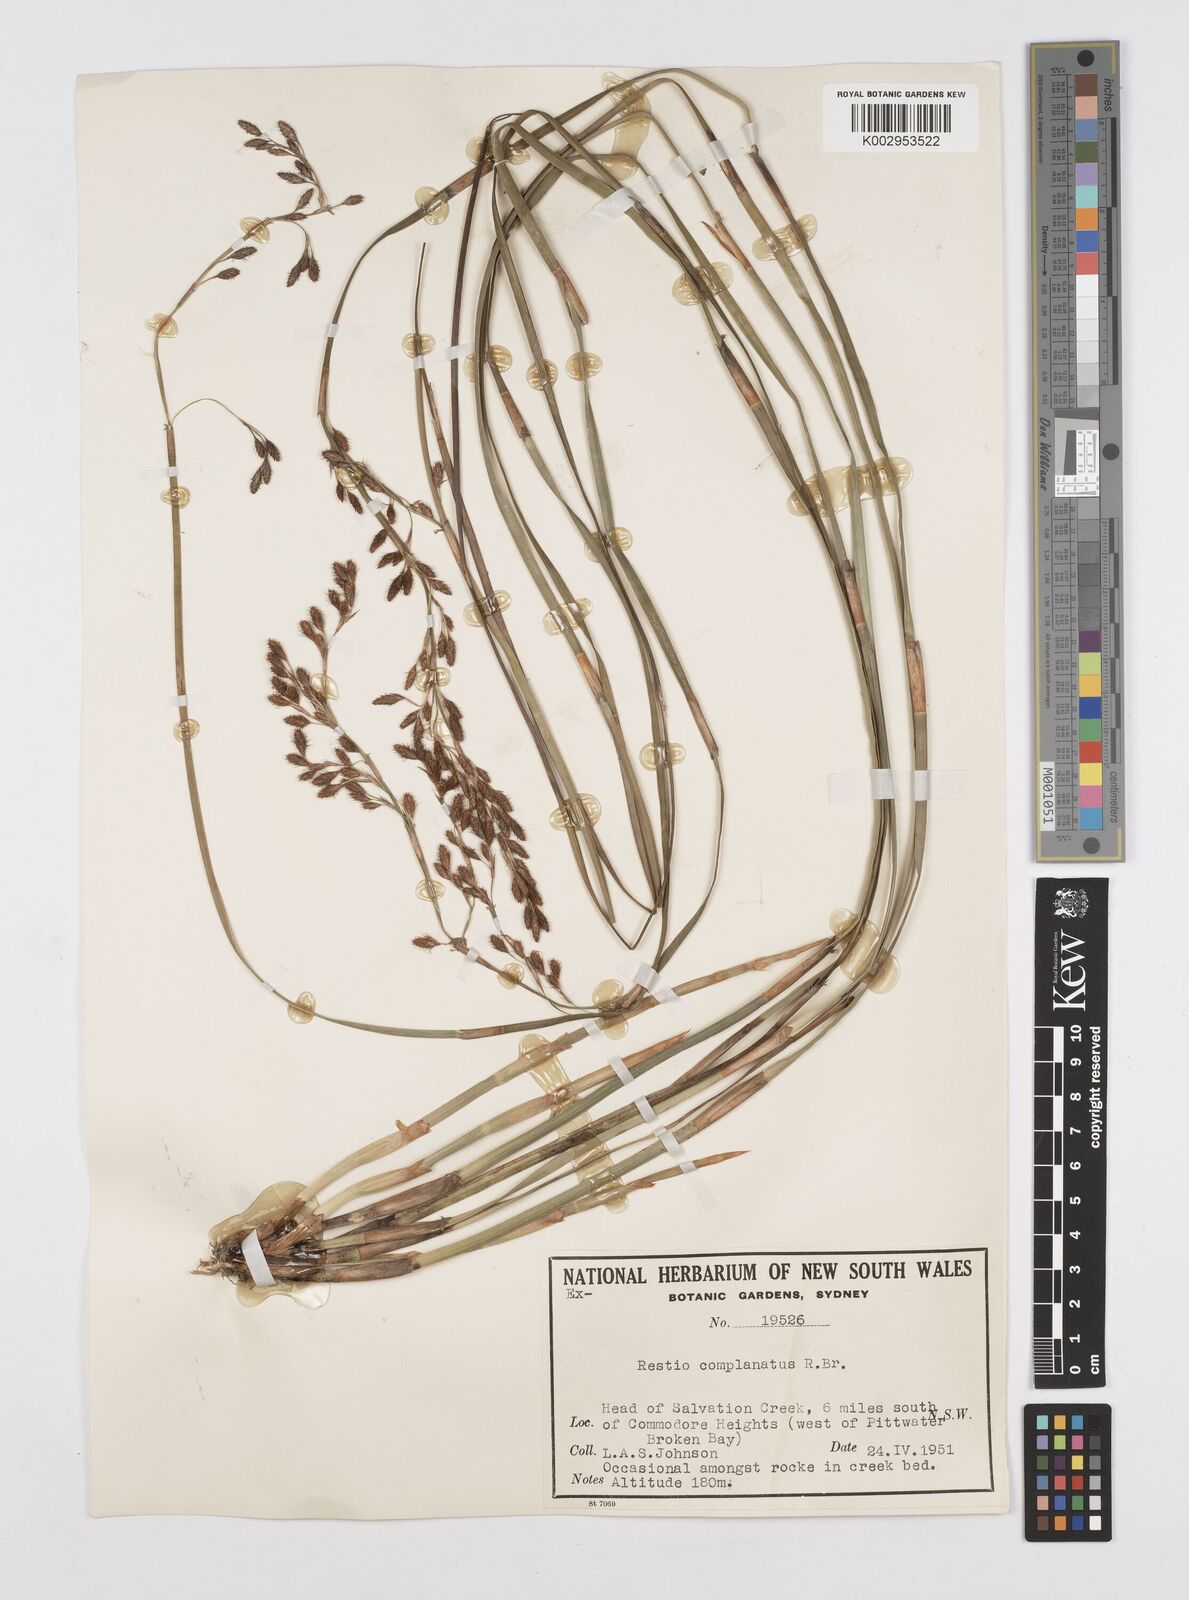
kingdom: Plantae
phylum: Tracheophyta
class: Liliopsida
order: Poales
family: Restionaceae
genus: Eurychorda
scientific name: Eurychorda complanata
